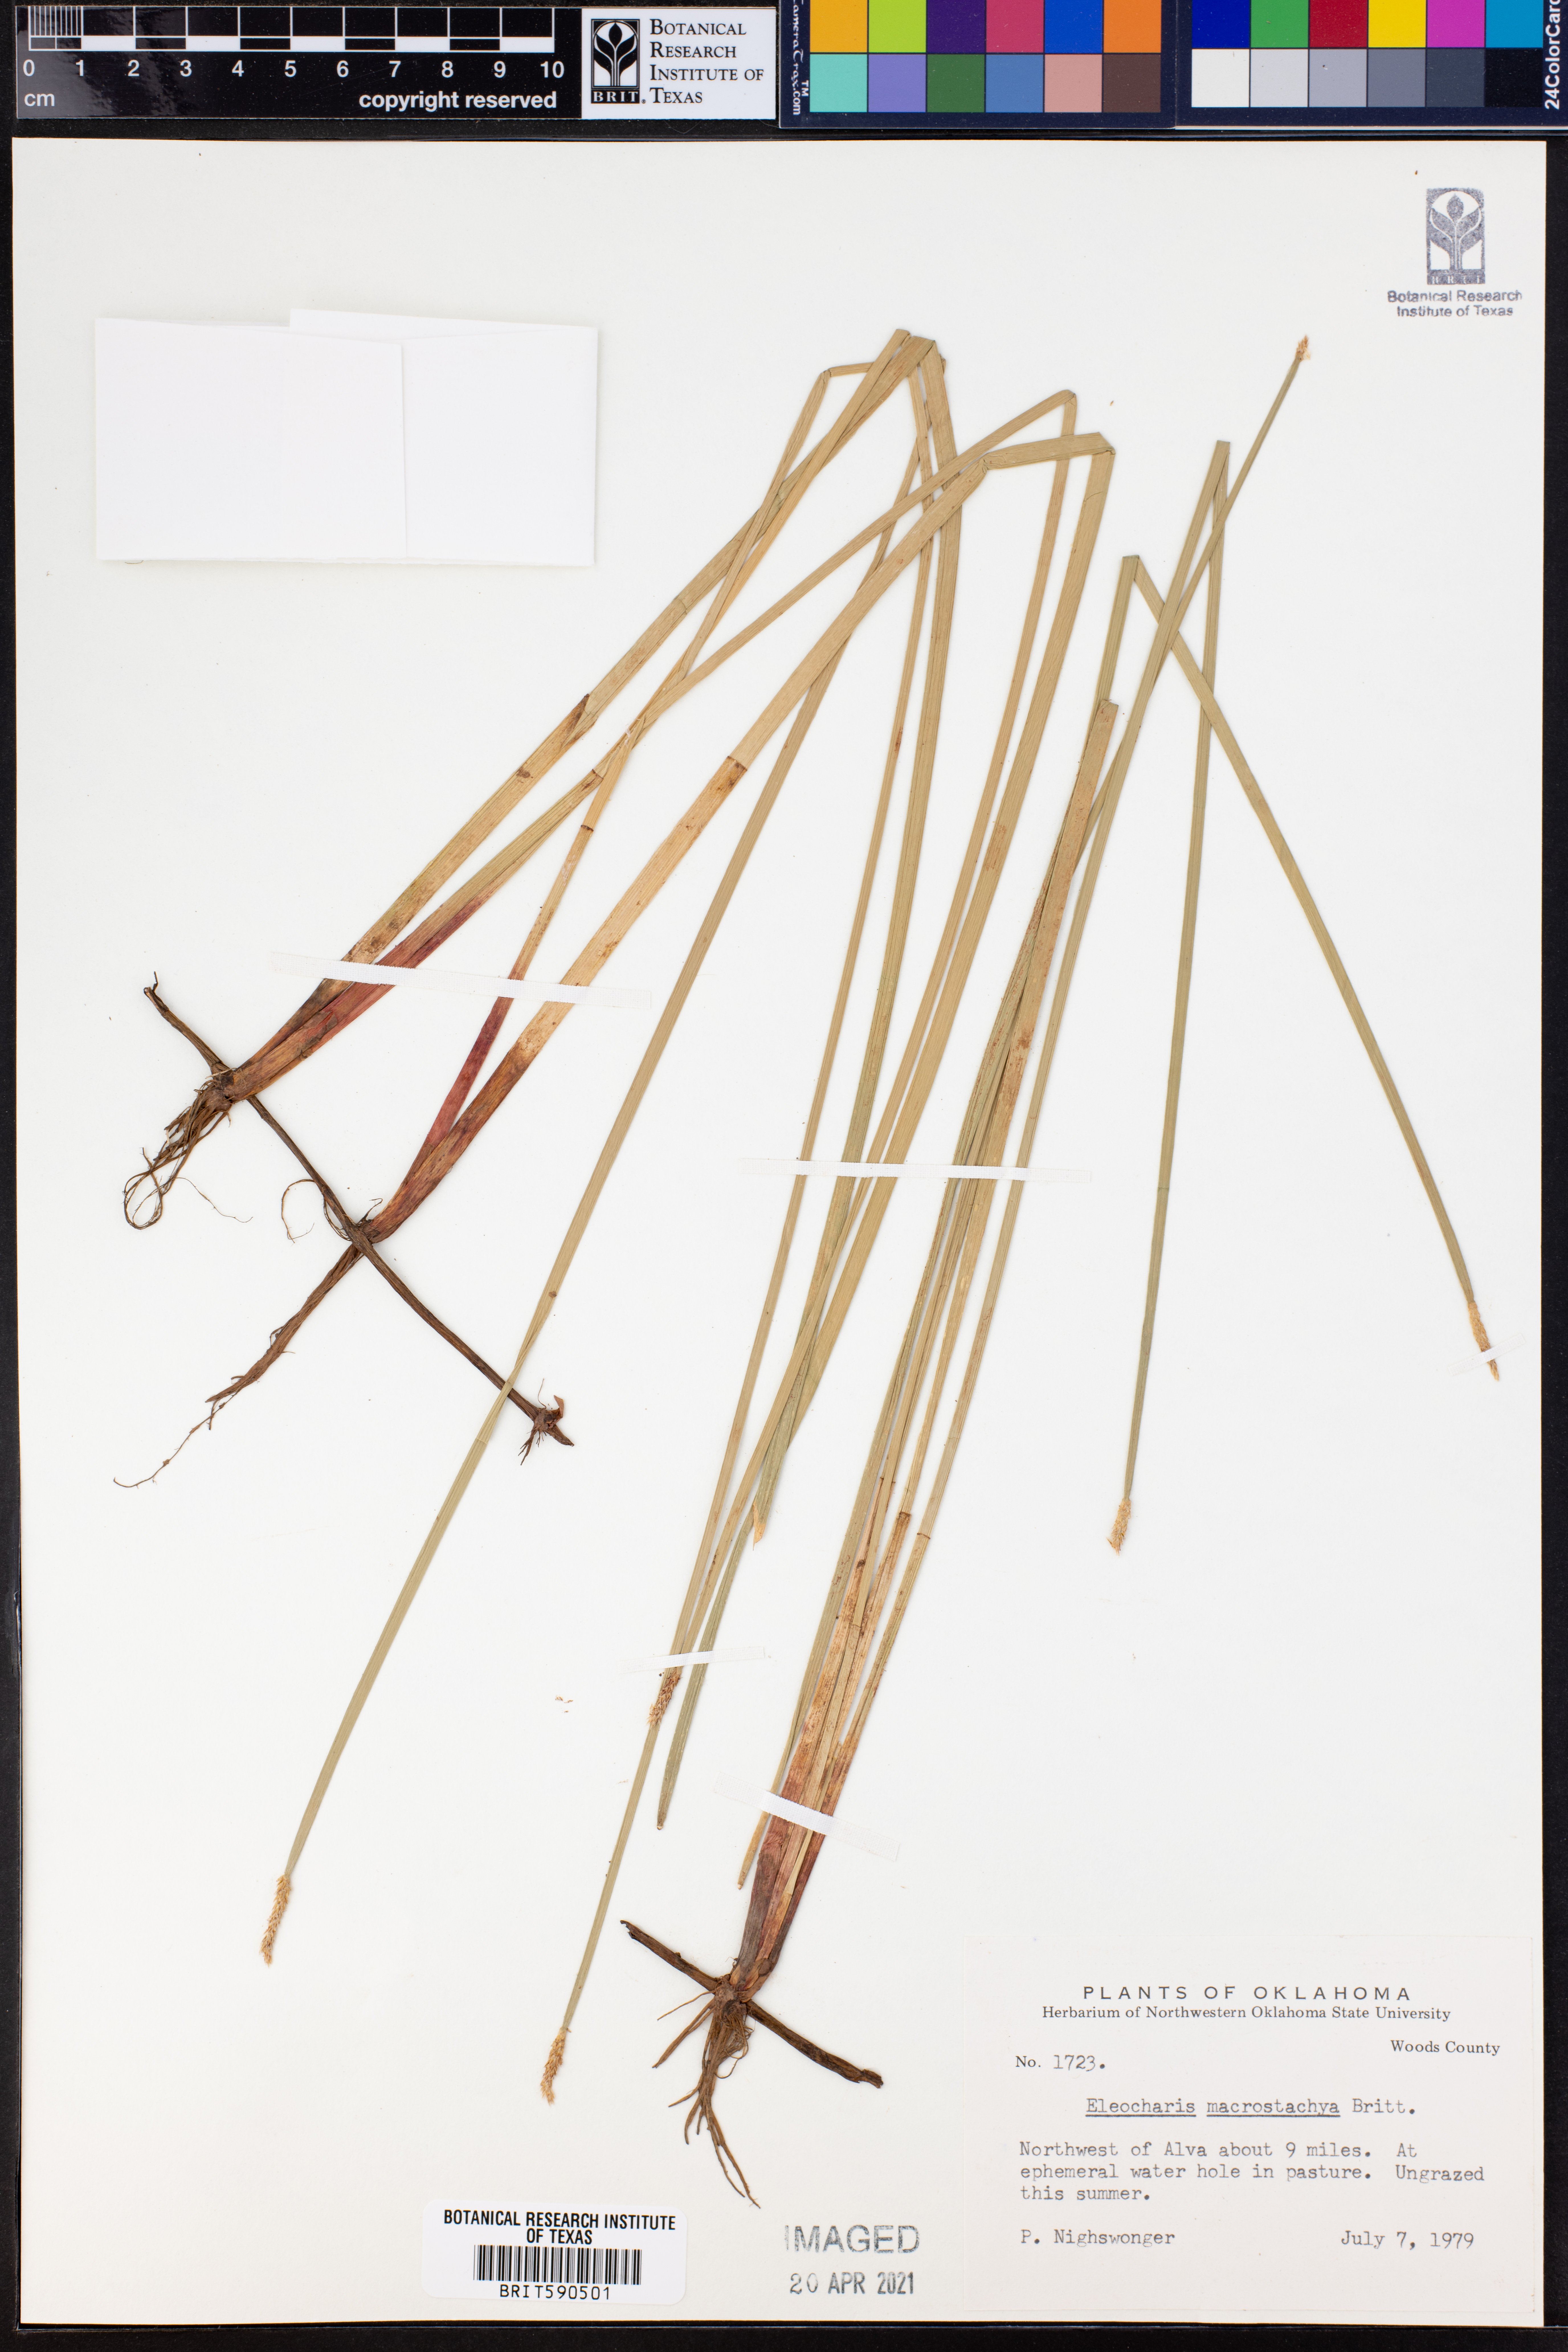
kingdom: Plantae
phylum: Tracheophyta
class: Liliopsida
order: Poales
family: Cyperaceae
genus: Eleocharis
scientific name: Eleocharis macrostachya
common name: Pale spikerush
